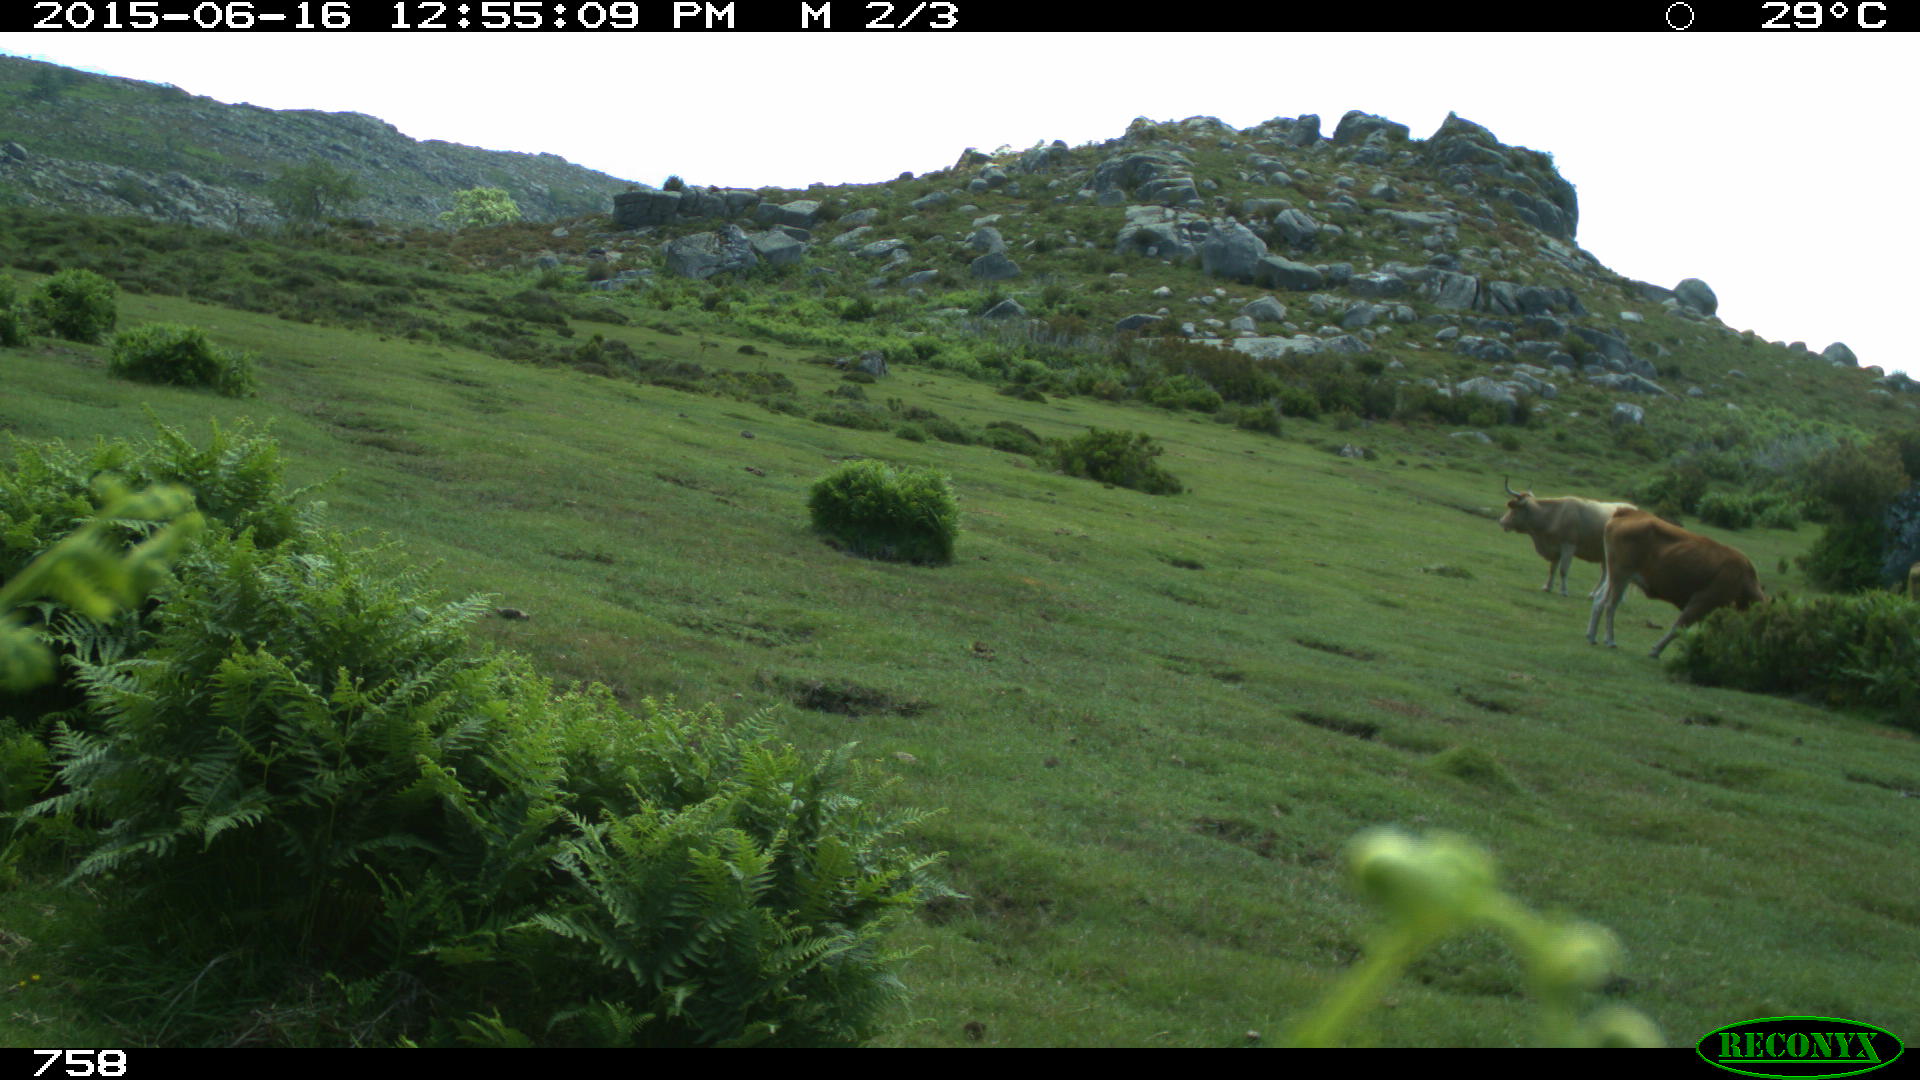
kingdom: Animalia
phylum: Chordata
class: Mammalia
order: Artiodactyla
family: Bovidae
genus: Bos
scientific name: Bos taurus
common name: Domesticated cattle
